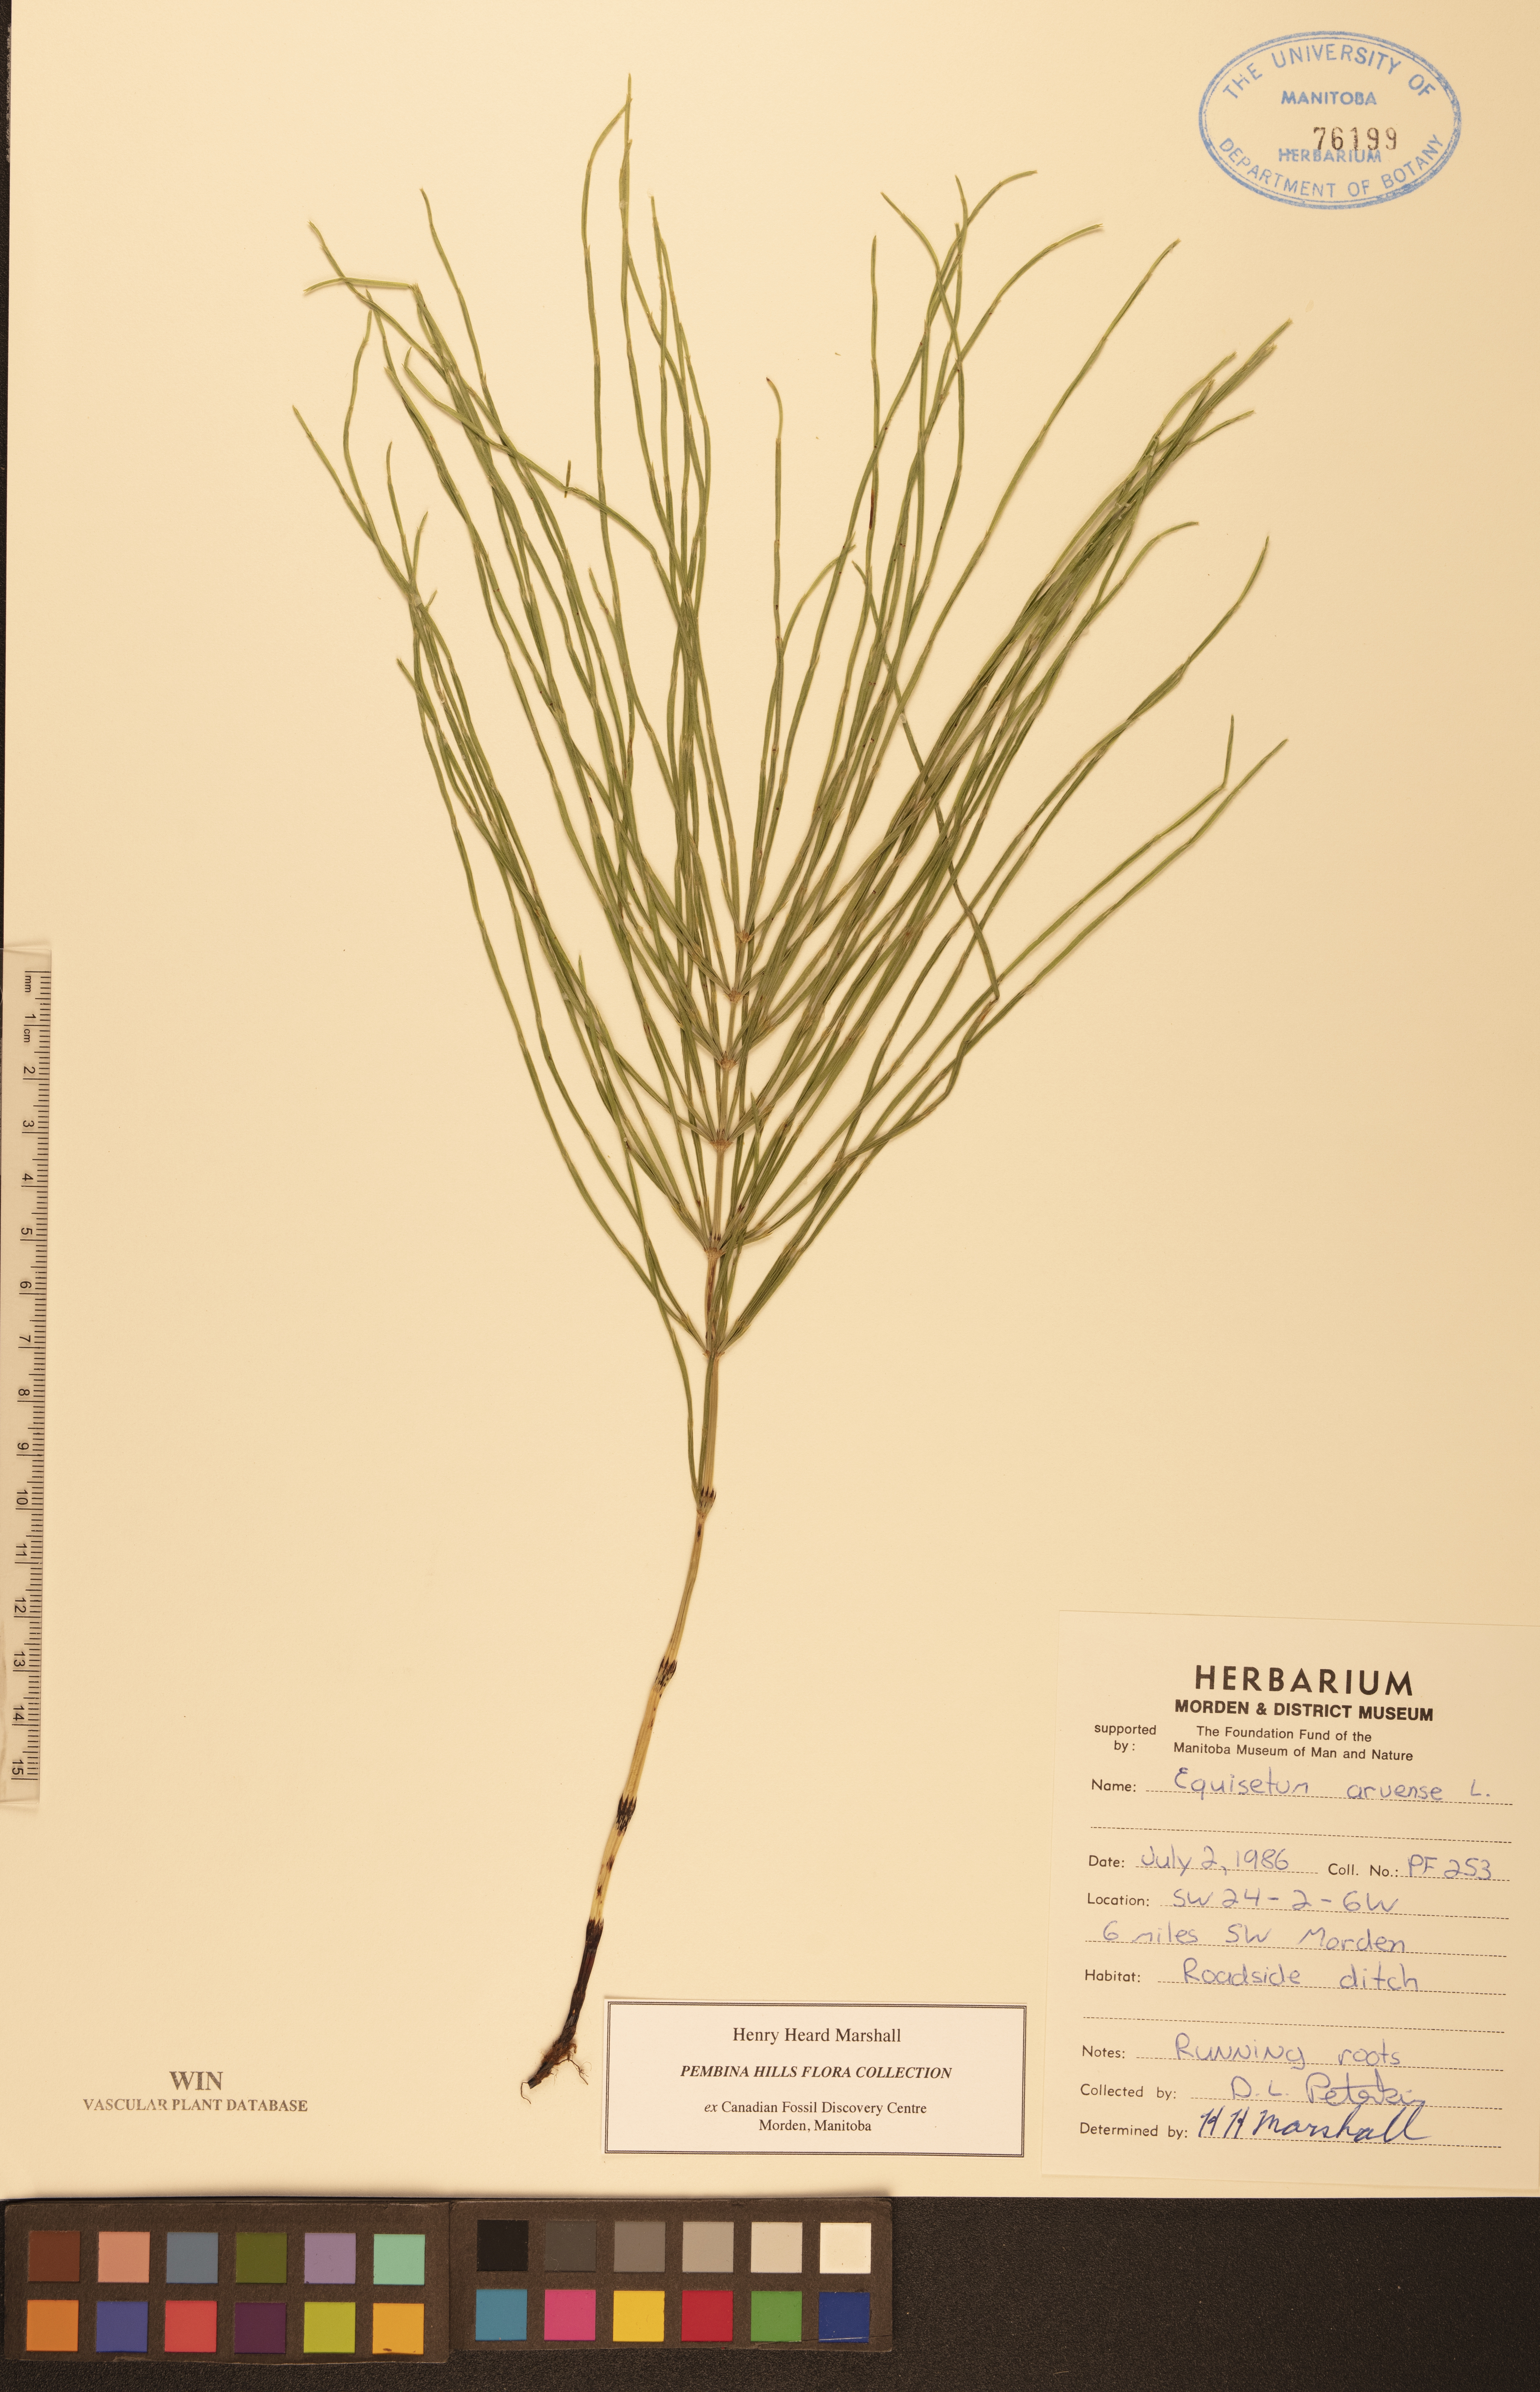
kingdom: Plantae
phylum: Tracheophyta
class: Polypodiopsida
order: Equisetales
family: Equisetaceae
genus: Equisetum
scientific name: Equisetum arvense
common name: Field horsetail
